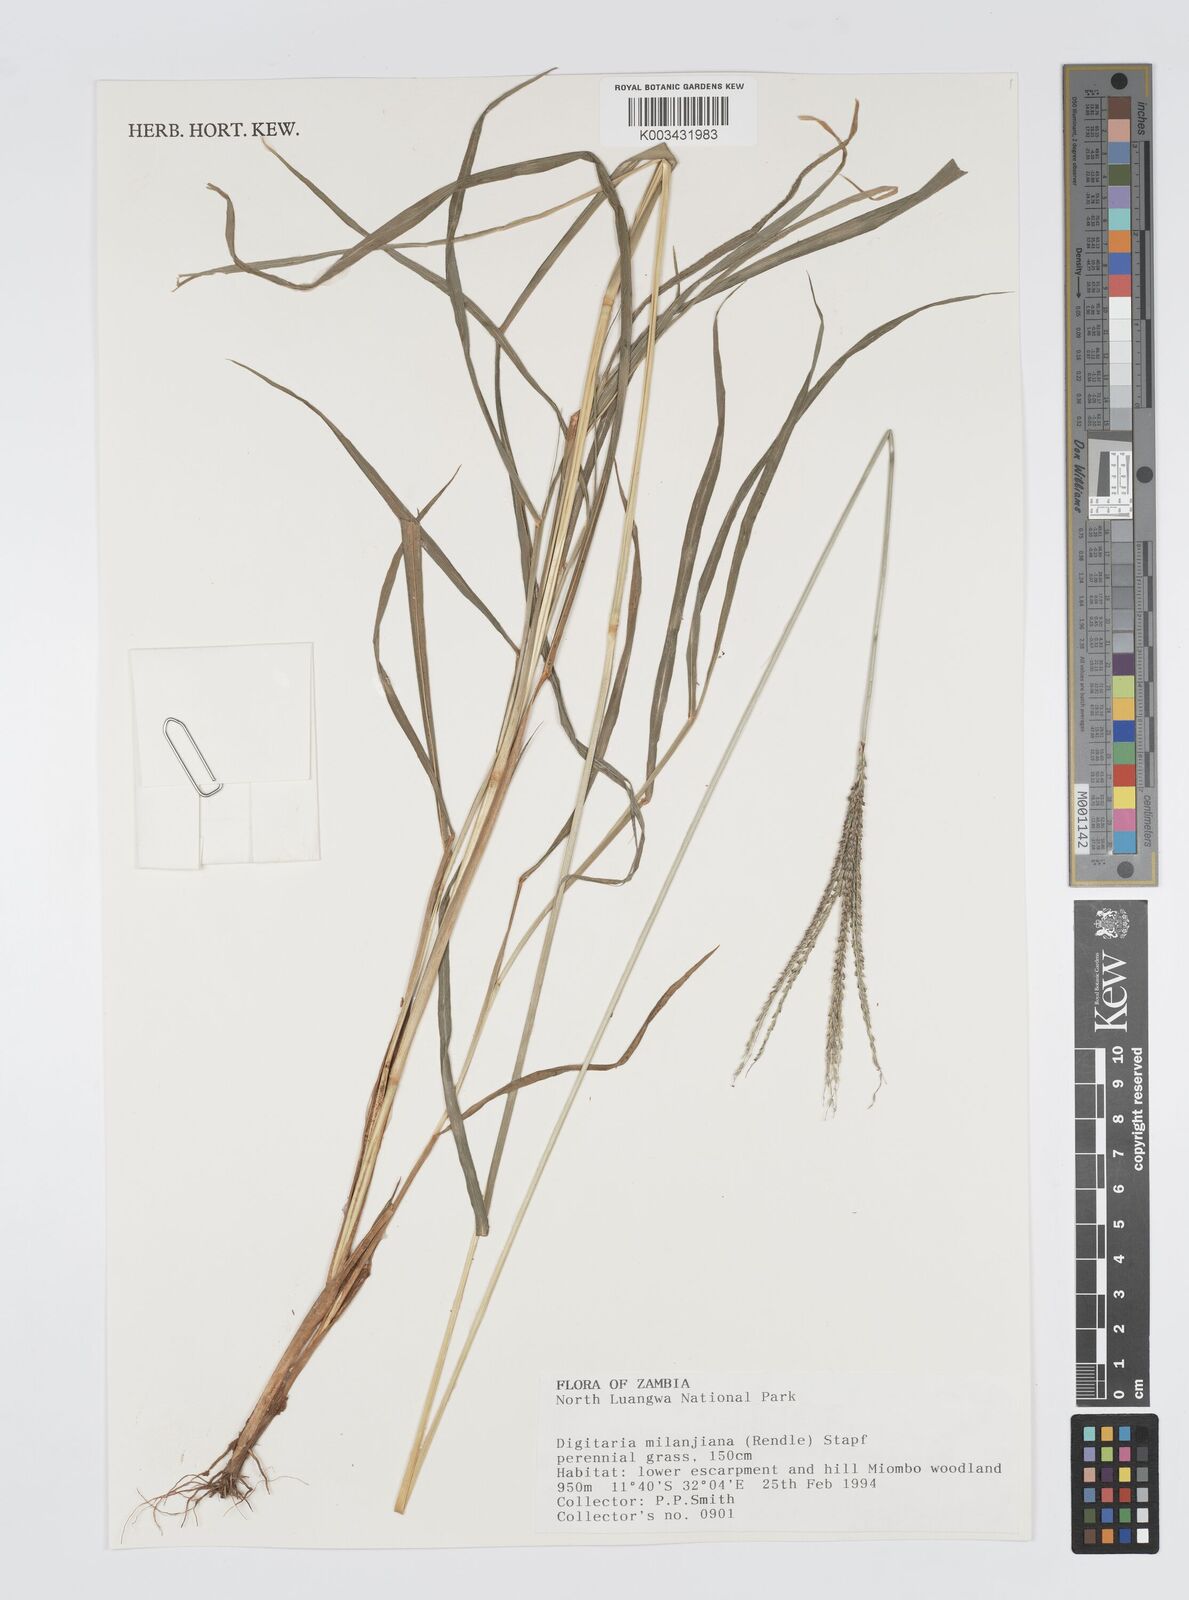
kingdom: Plantae
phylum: Tracheophyta
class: Liliopsida
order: Poales
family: Poaceae
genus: Digitaria
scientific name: Digitaria milanjiana
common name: Madagascar crabgrass
